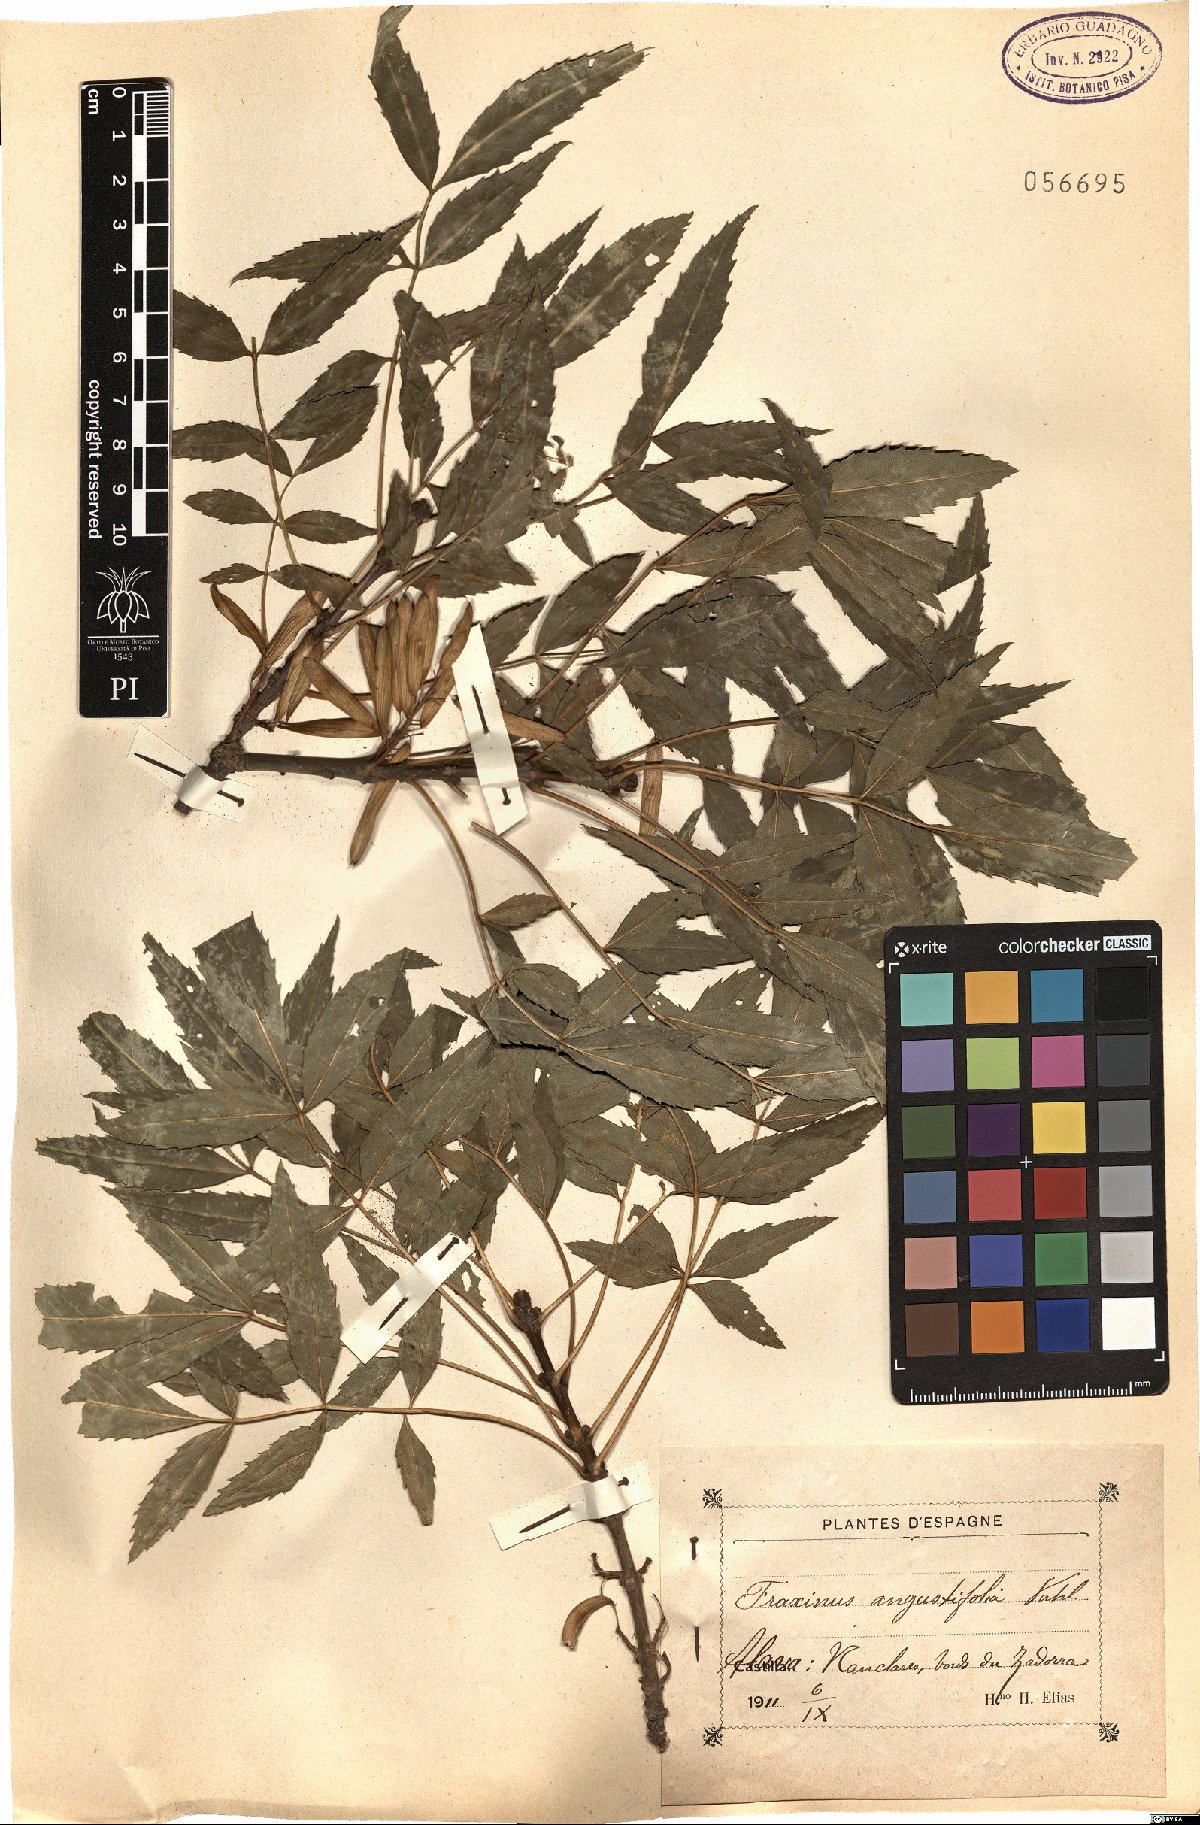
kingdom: Plantae
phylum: Tracheophyta
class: Magnoliopsida
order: Lamiales
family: Oleaceae
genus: Fraxinus
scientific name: Fraxinus angustifolia
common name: Narrow-leafed ash
